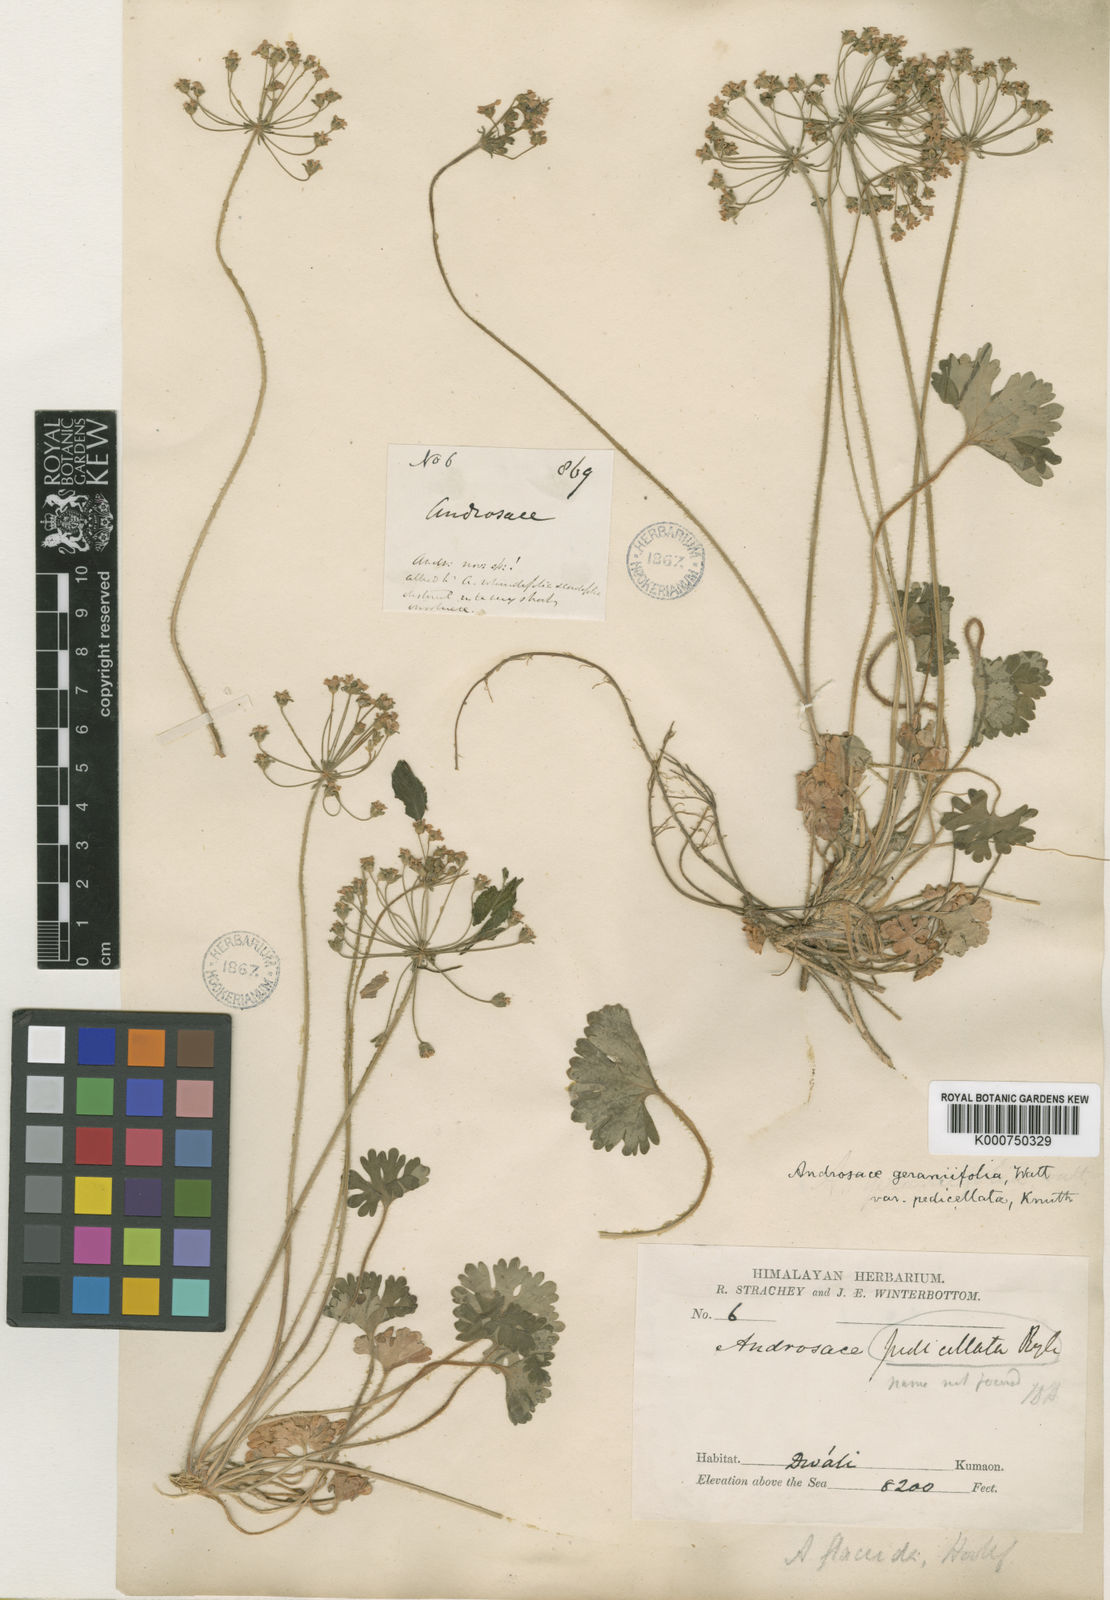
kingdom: Plantae
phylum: Tracheophyta
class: Magnoliopsida
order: Ericales
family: Primulaceae
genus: Androsace
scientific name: Androsace geraniifolia
